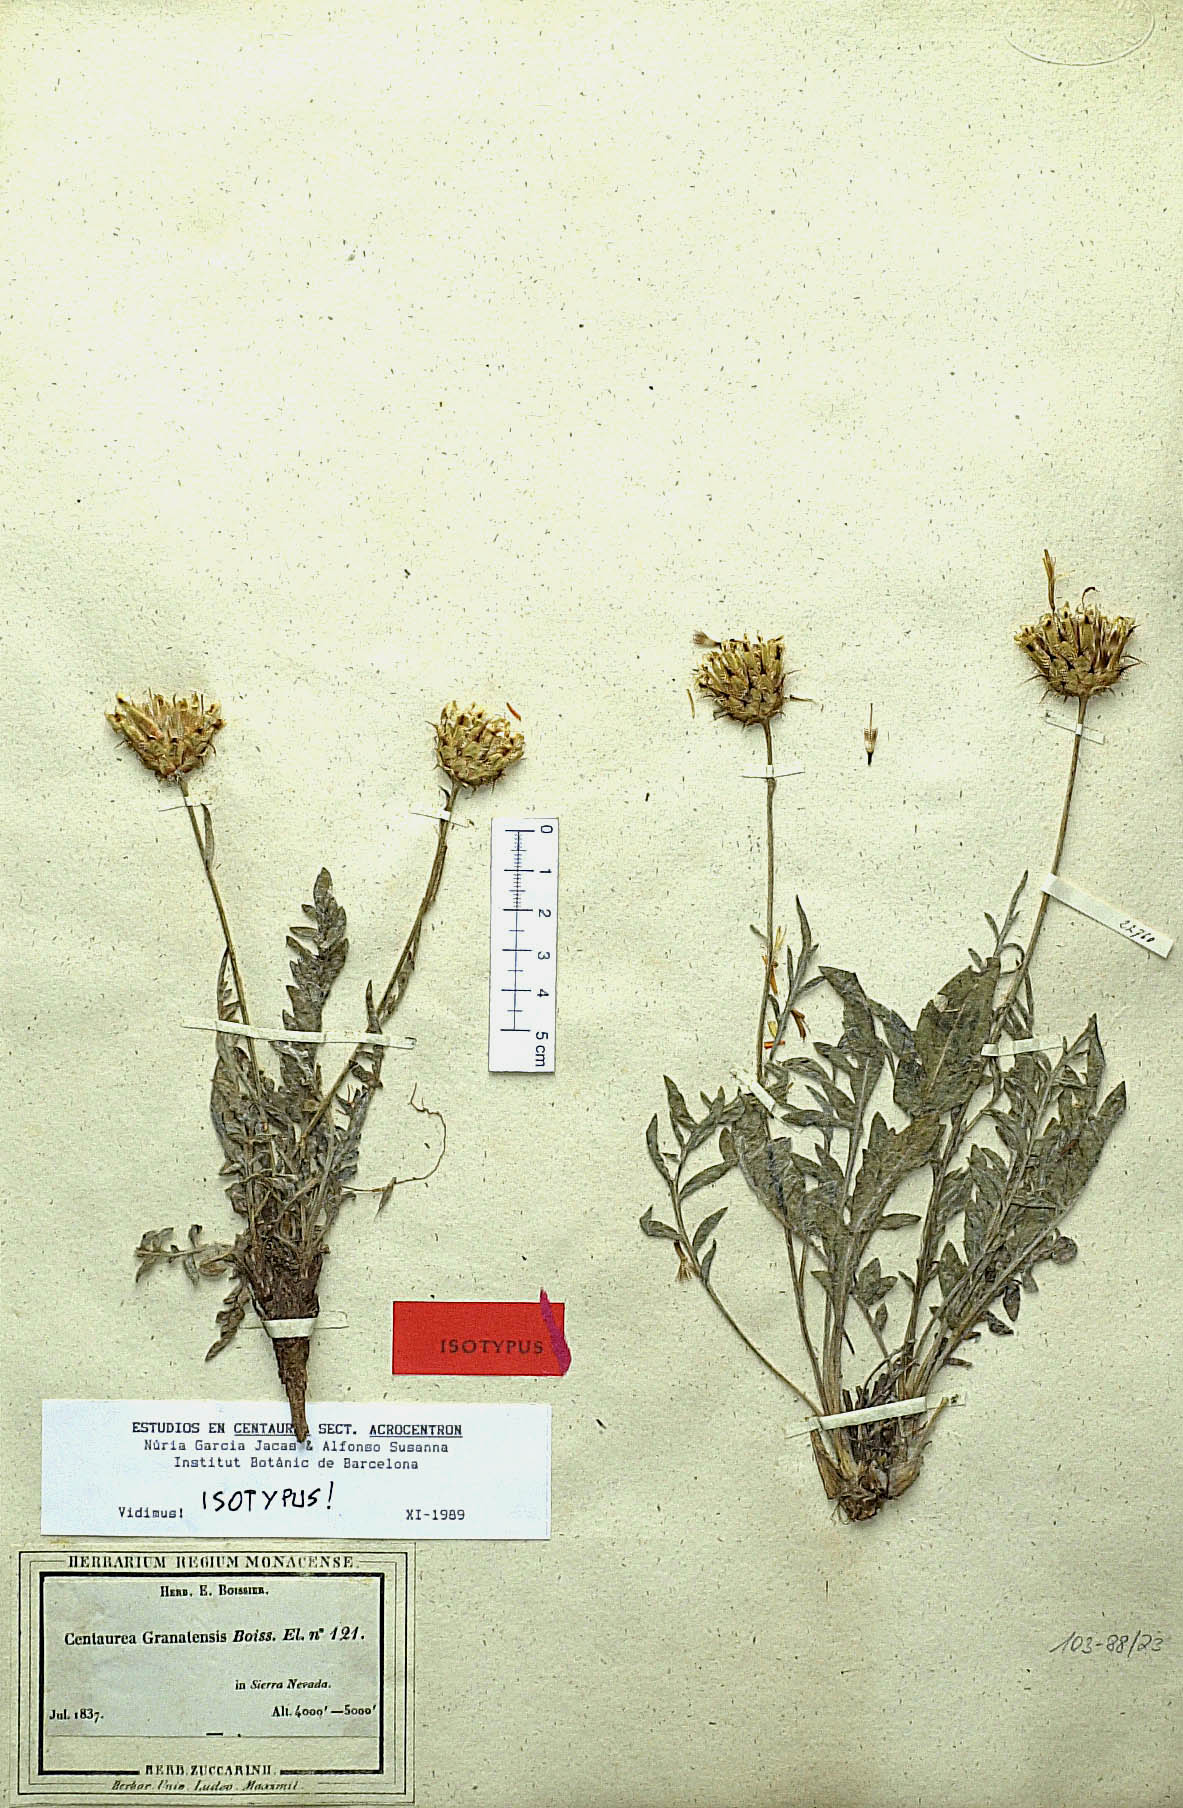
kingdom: Plantae
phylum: Tracheophyta
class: Magnoliopsida
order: Asterales
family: Asteraceae
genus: Centaurea
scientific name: Centaurea granatensis
